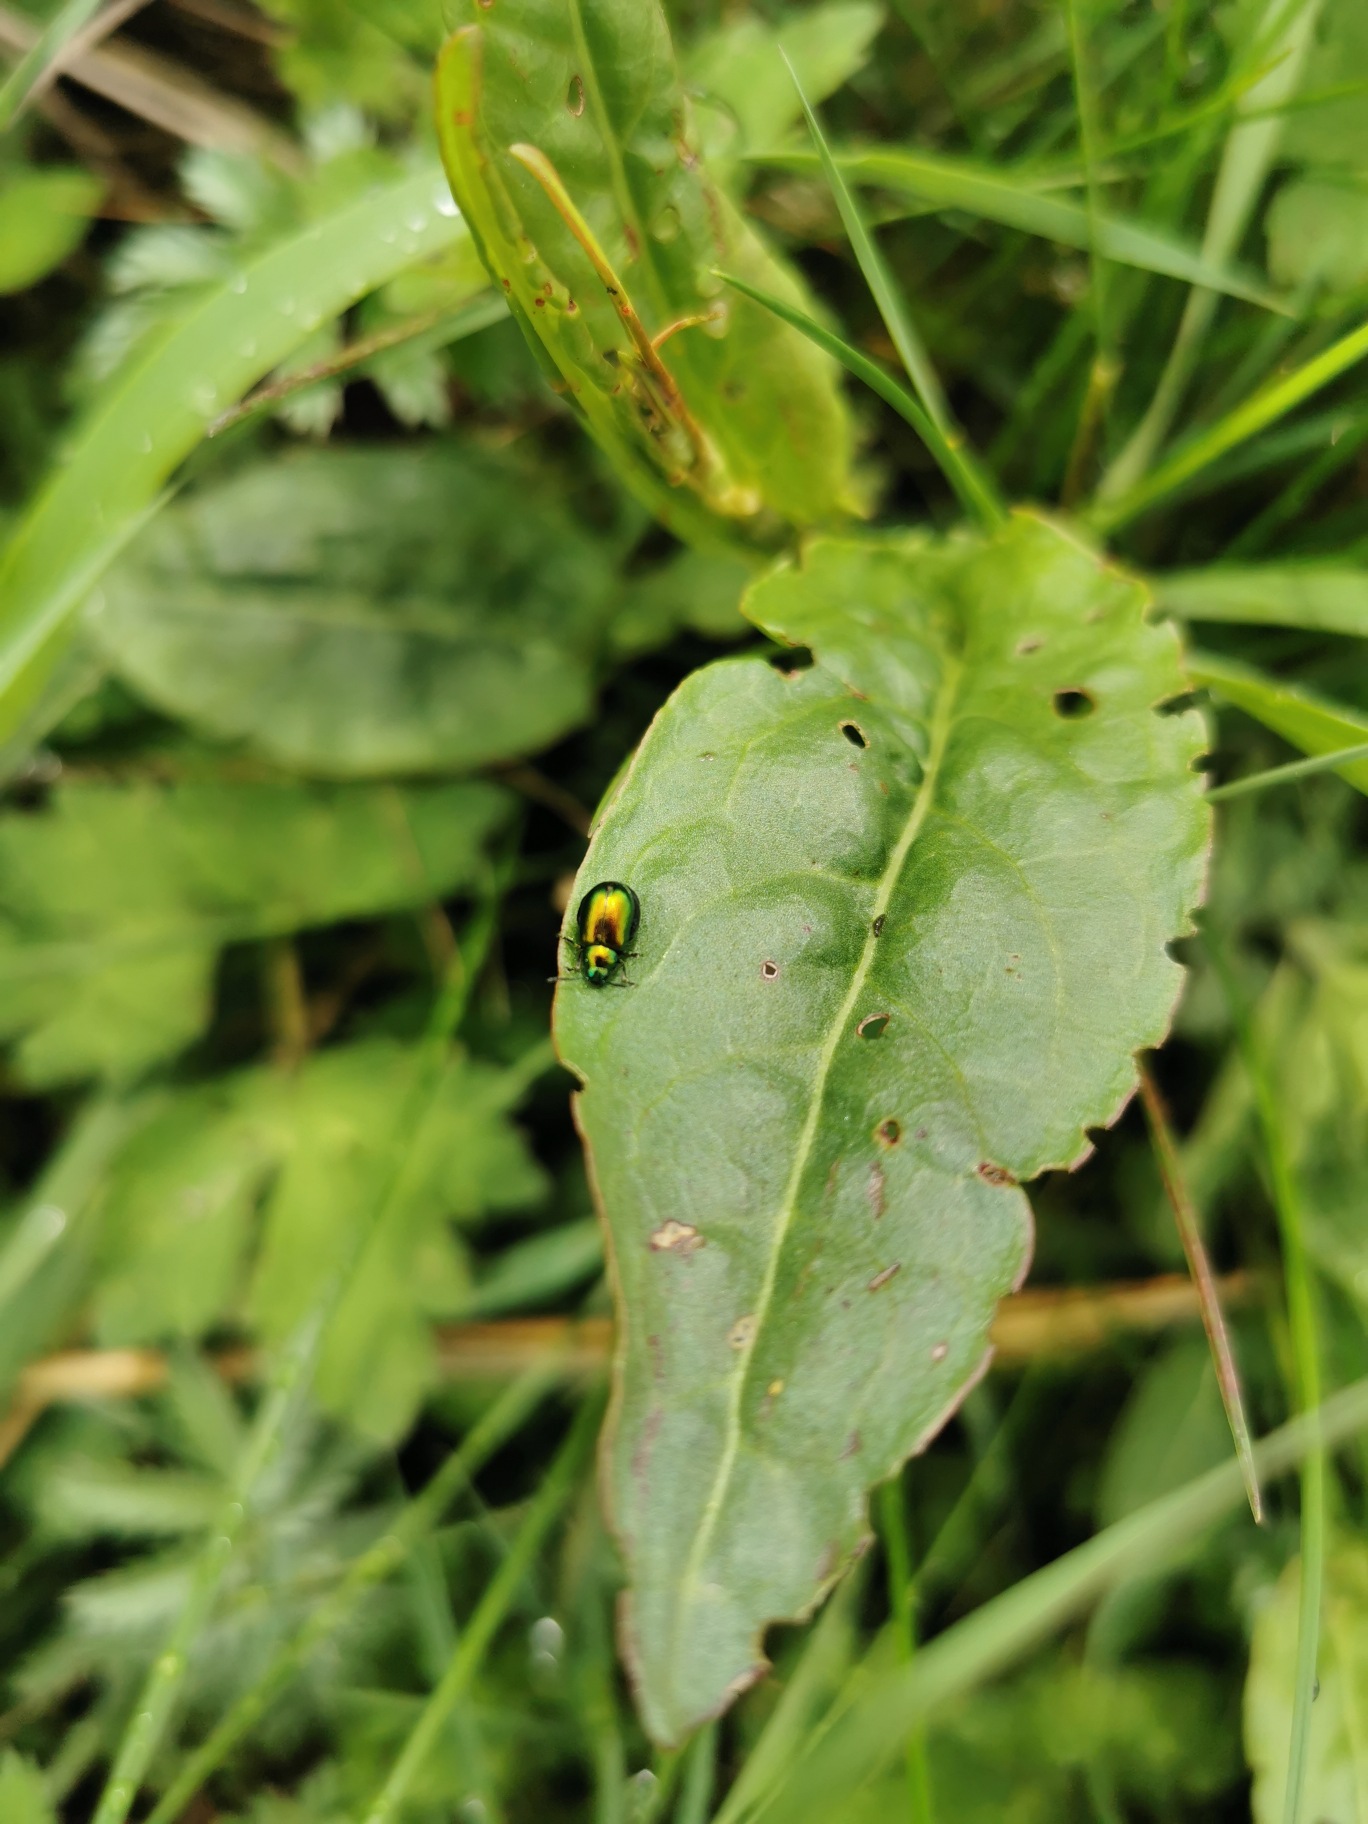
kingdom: Animalia
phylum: Arthropoda
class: Insecta
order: Coleoptera
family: Chrysomelidae
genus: Gastrophysa
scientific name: Gastrophysa viridula
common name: Skræppebladbille
